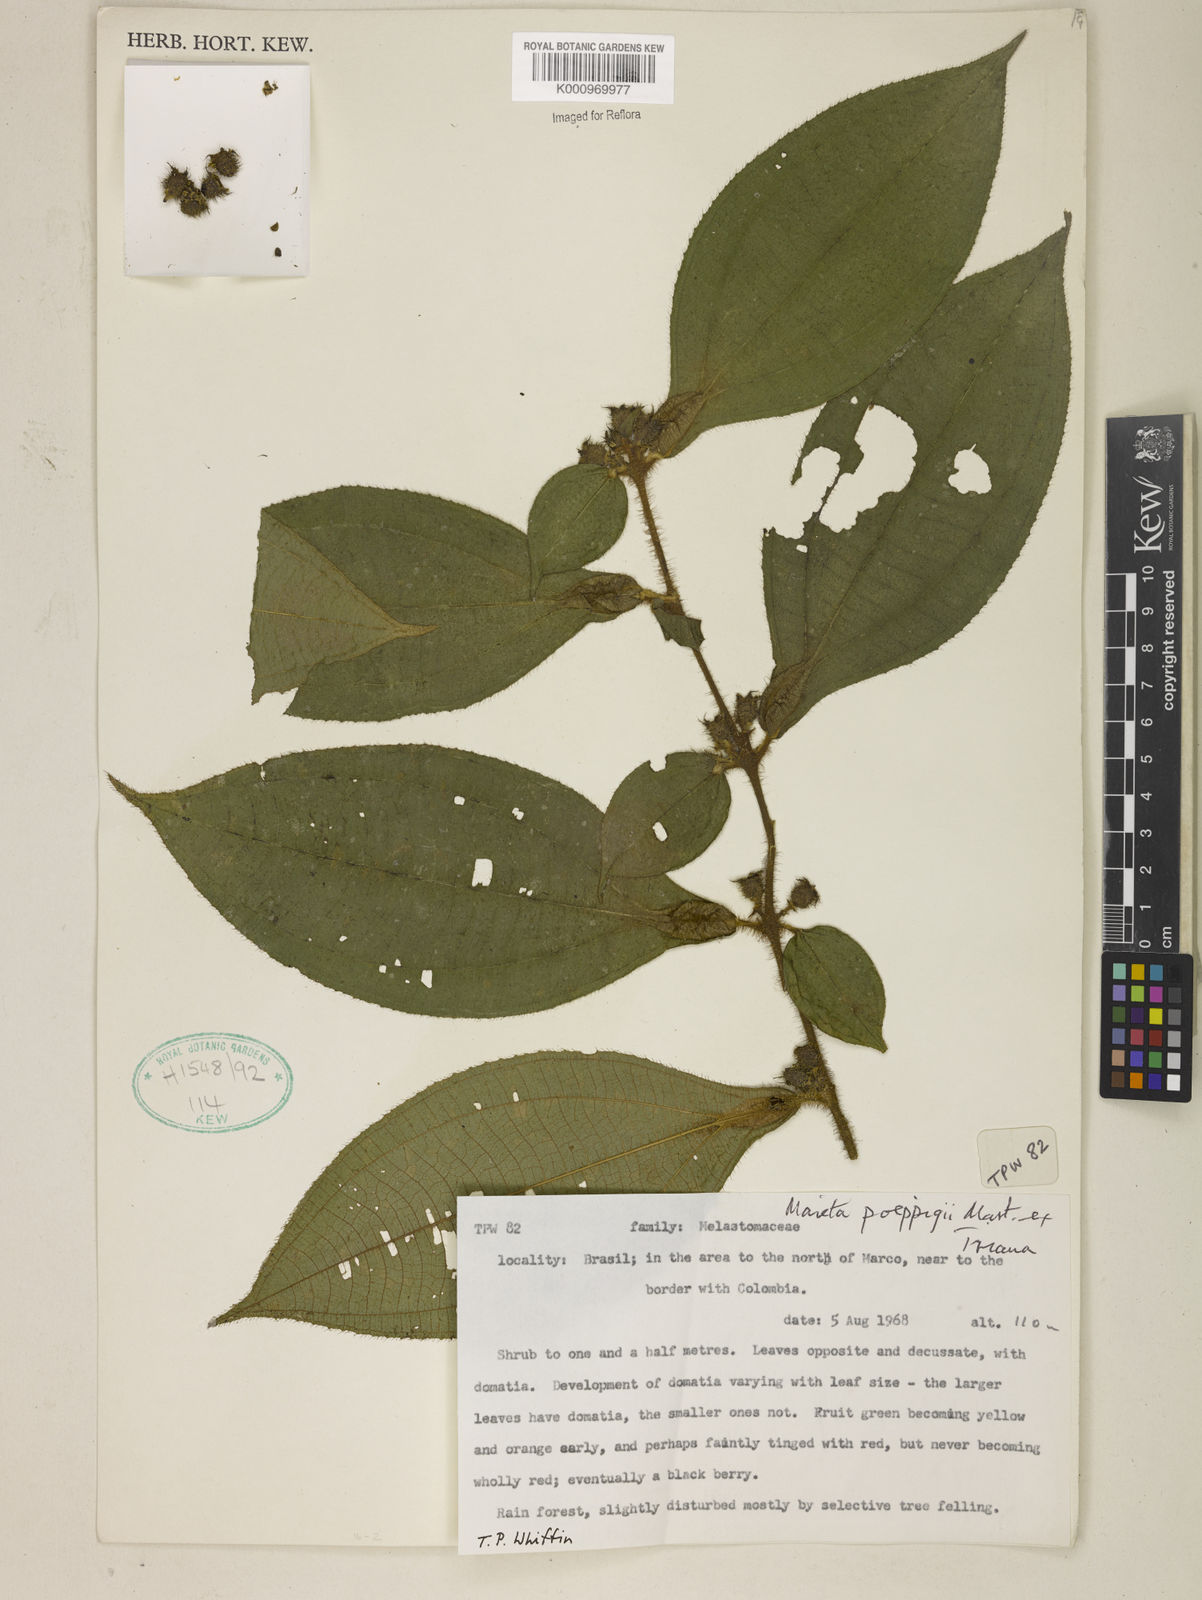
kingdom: Plantae
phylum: Tracheophyta
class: Magnoliopsida
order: Myrtales
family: Melastomataceae
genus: Miconia
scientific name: Miconia alternidomatia
